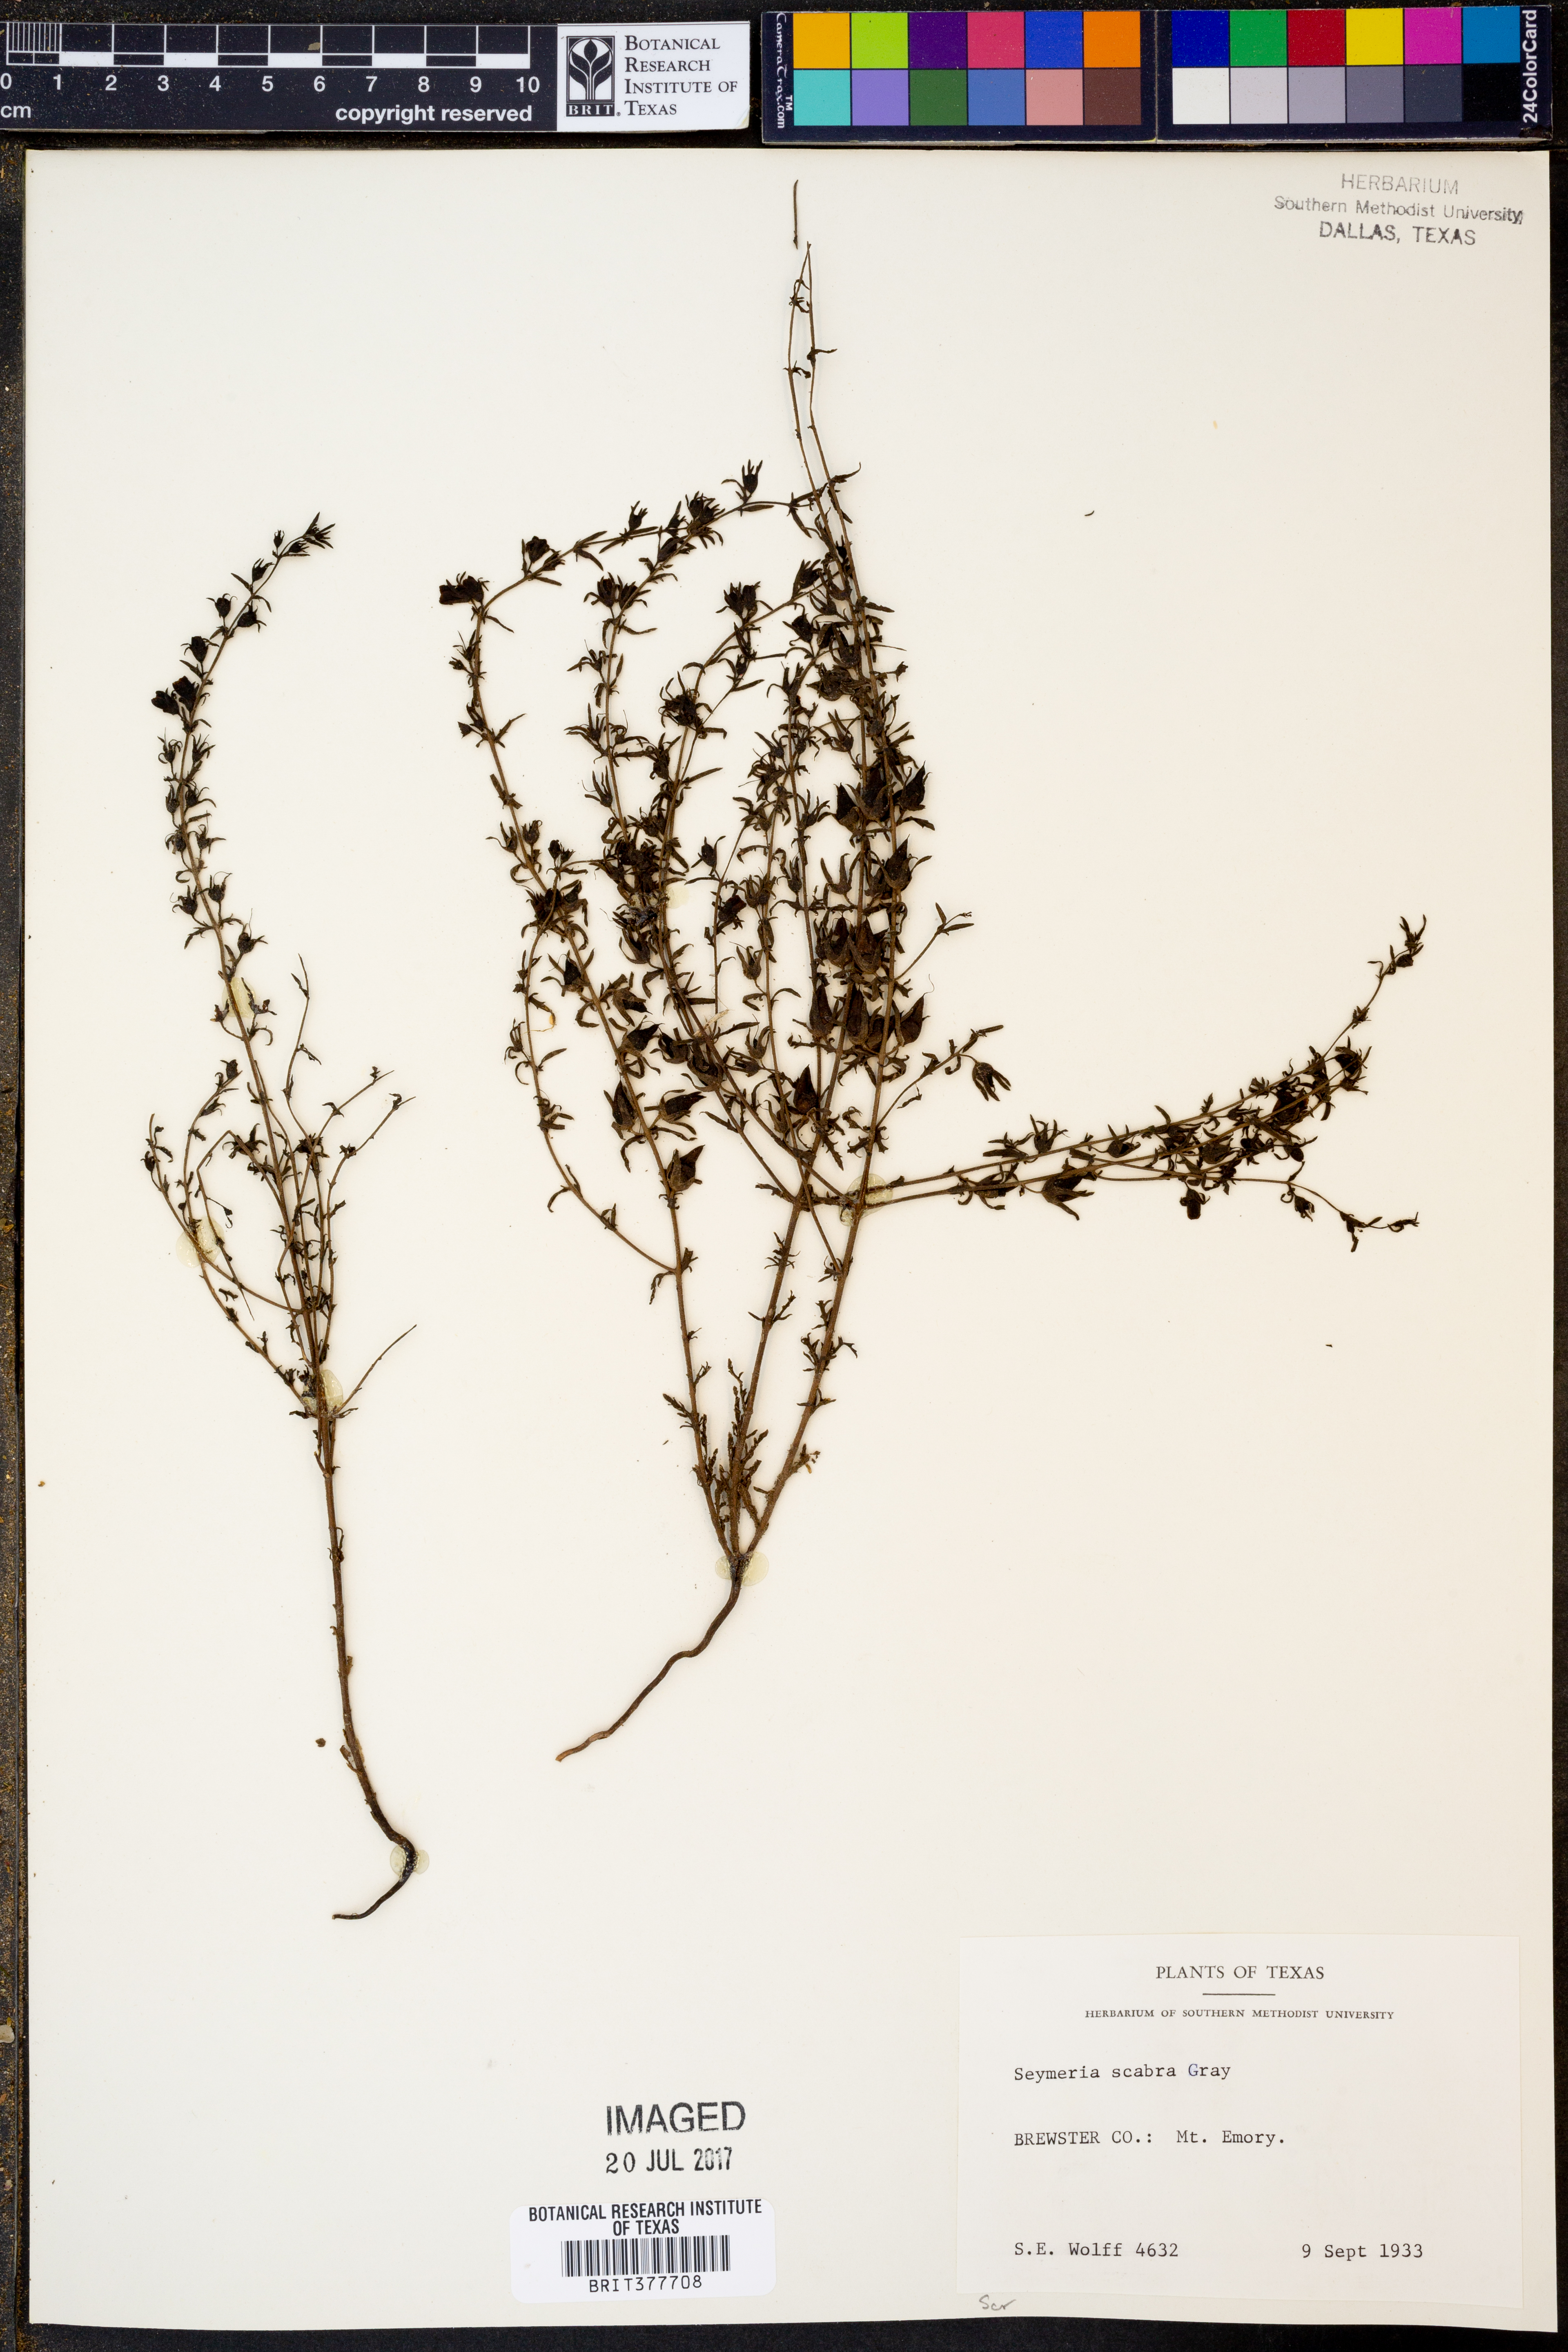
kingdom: Plantae
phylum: Tracheophyta
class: Magnoliopsida
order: Lamiales
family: Orobanchaceae
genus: Seymeria
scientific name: Seymeria scabra
